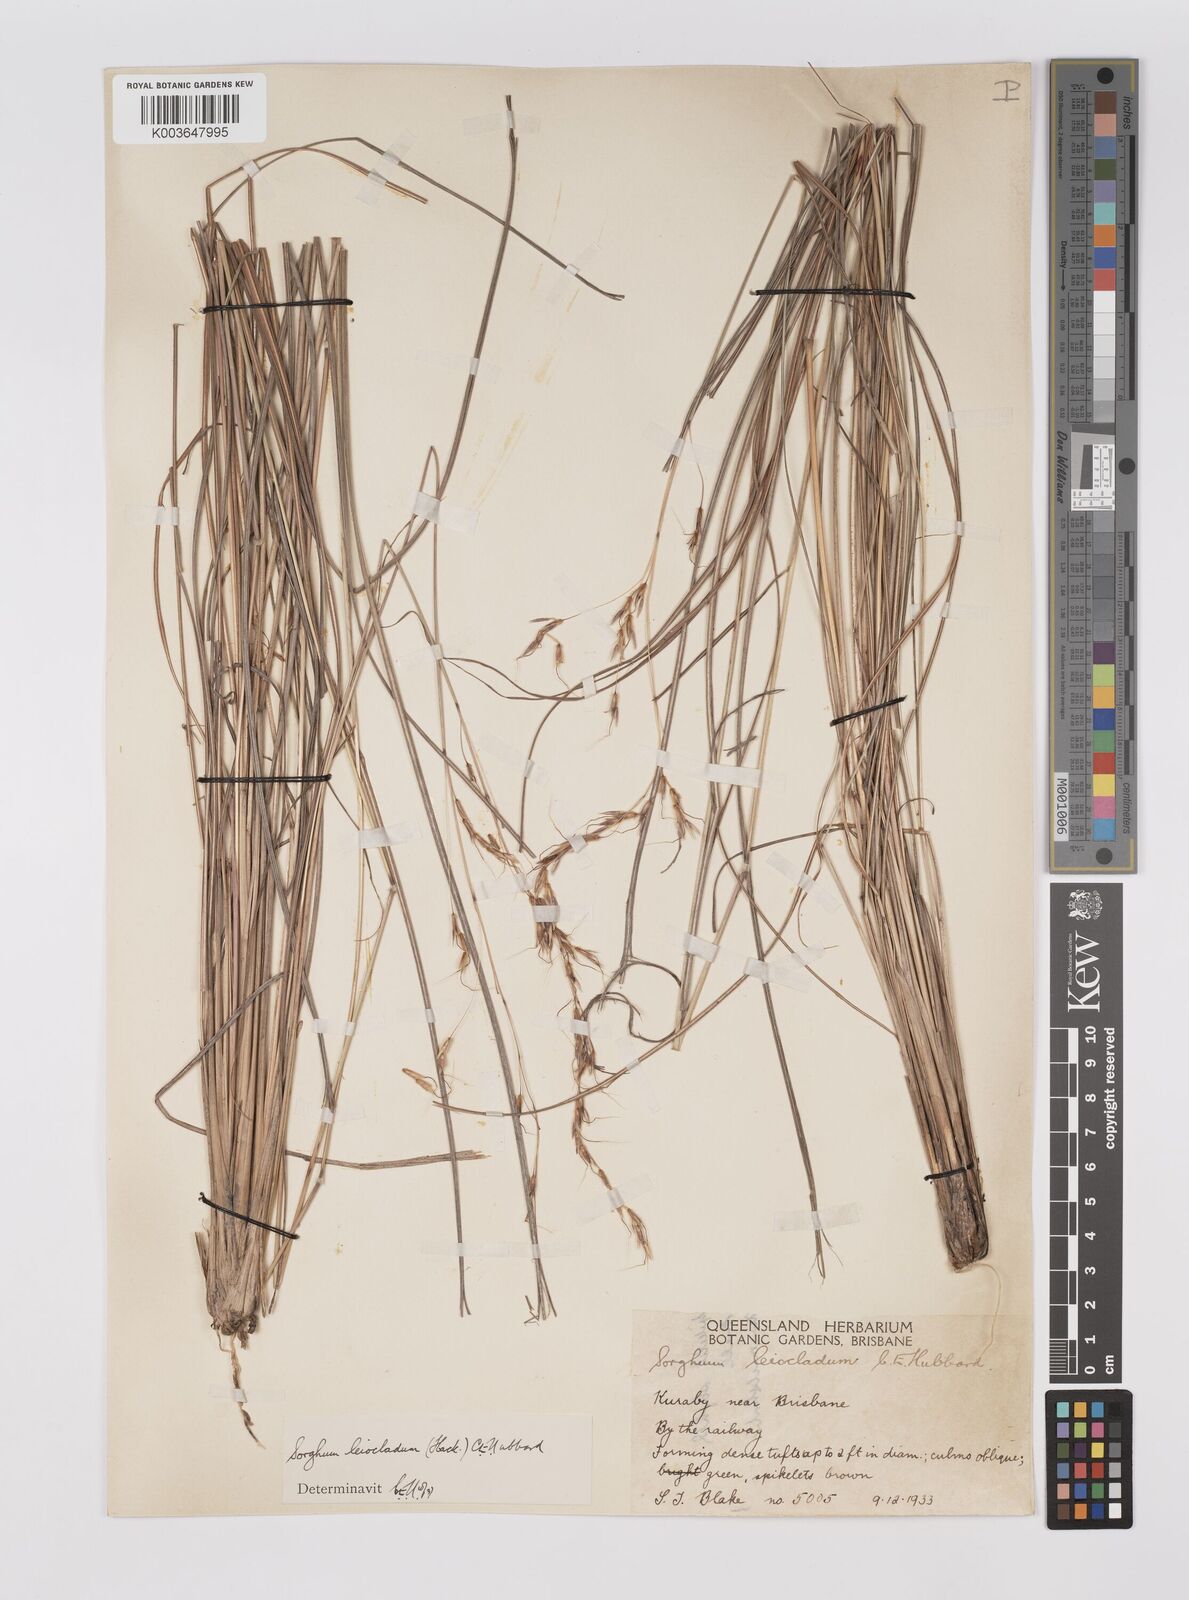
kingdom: Plantae
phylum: Tracheophyta
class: Liliopsida
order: Poales
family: Poaceae
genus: Sarga
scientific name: Sarga leioclada
